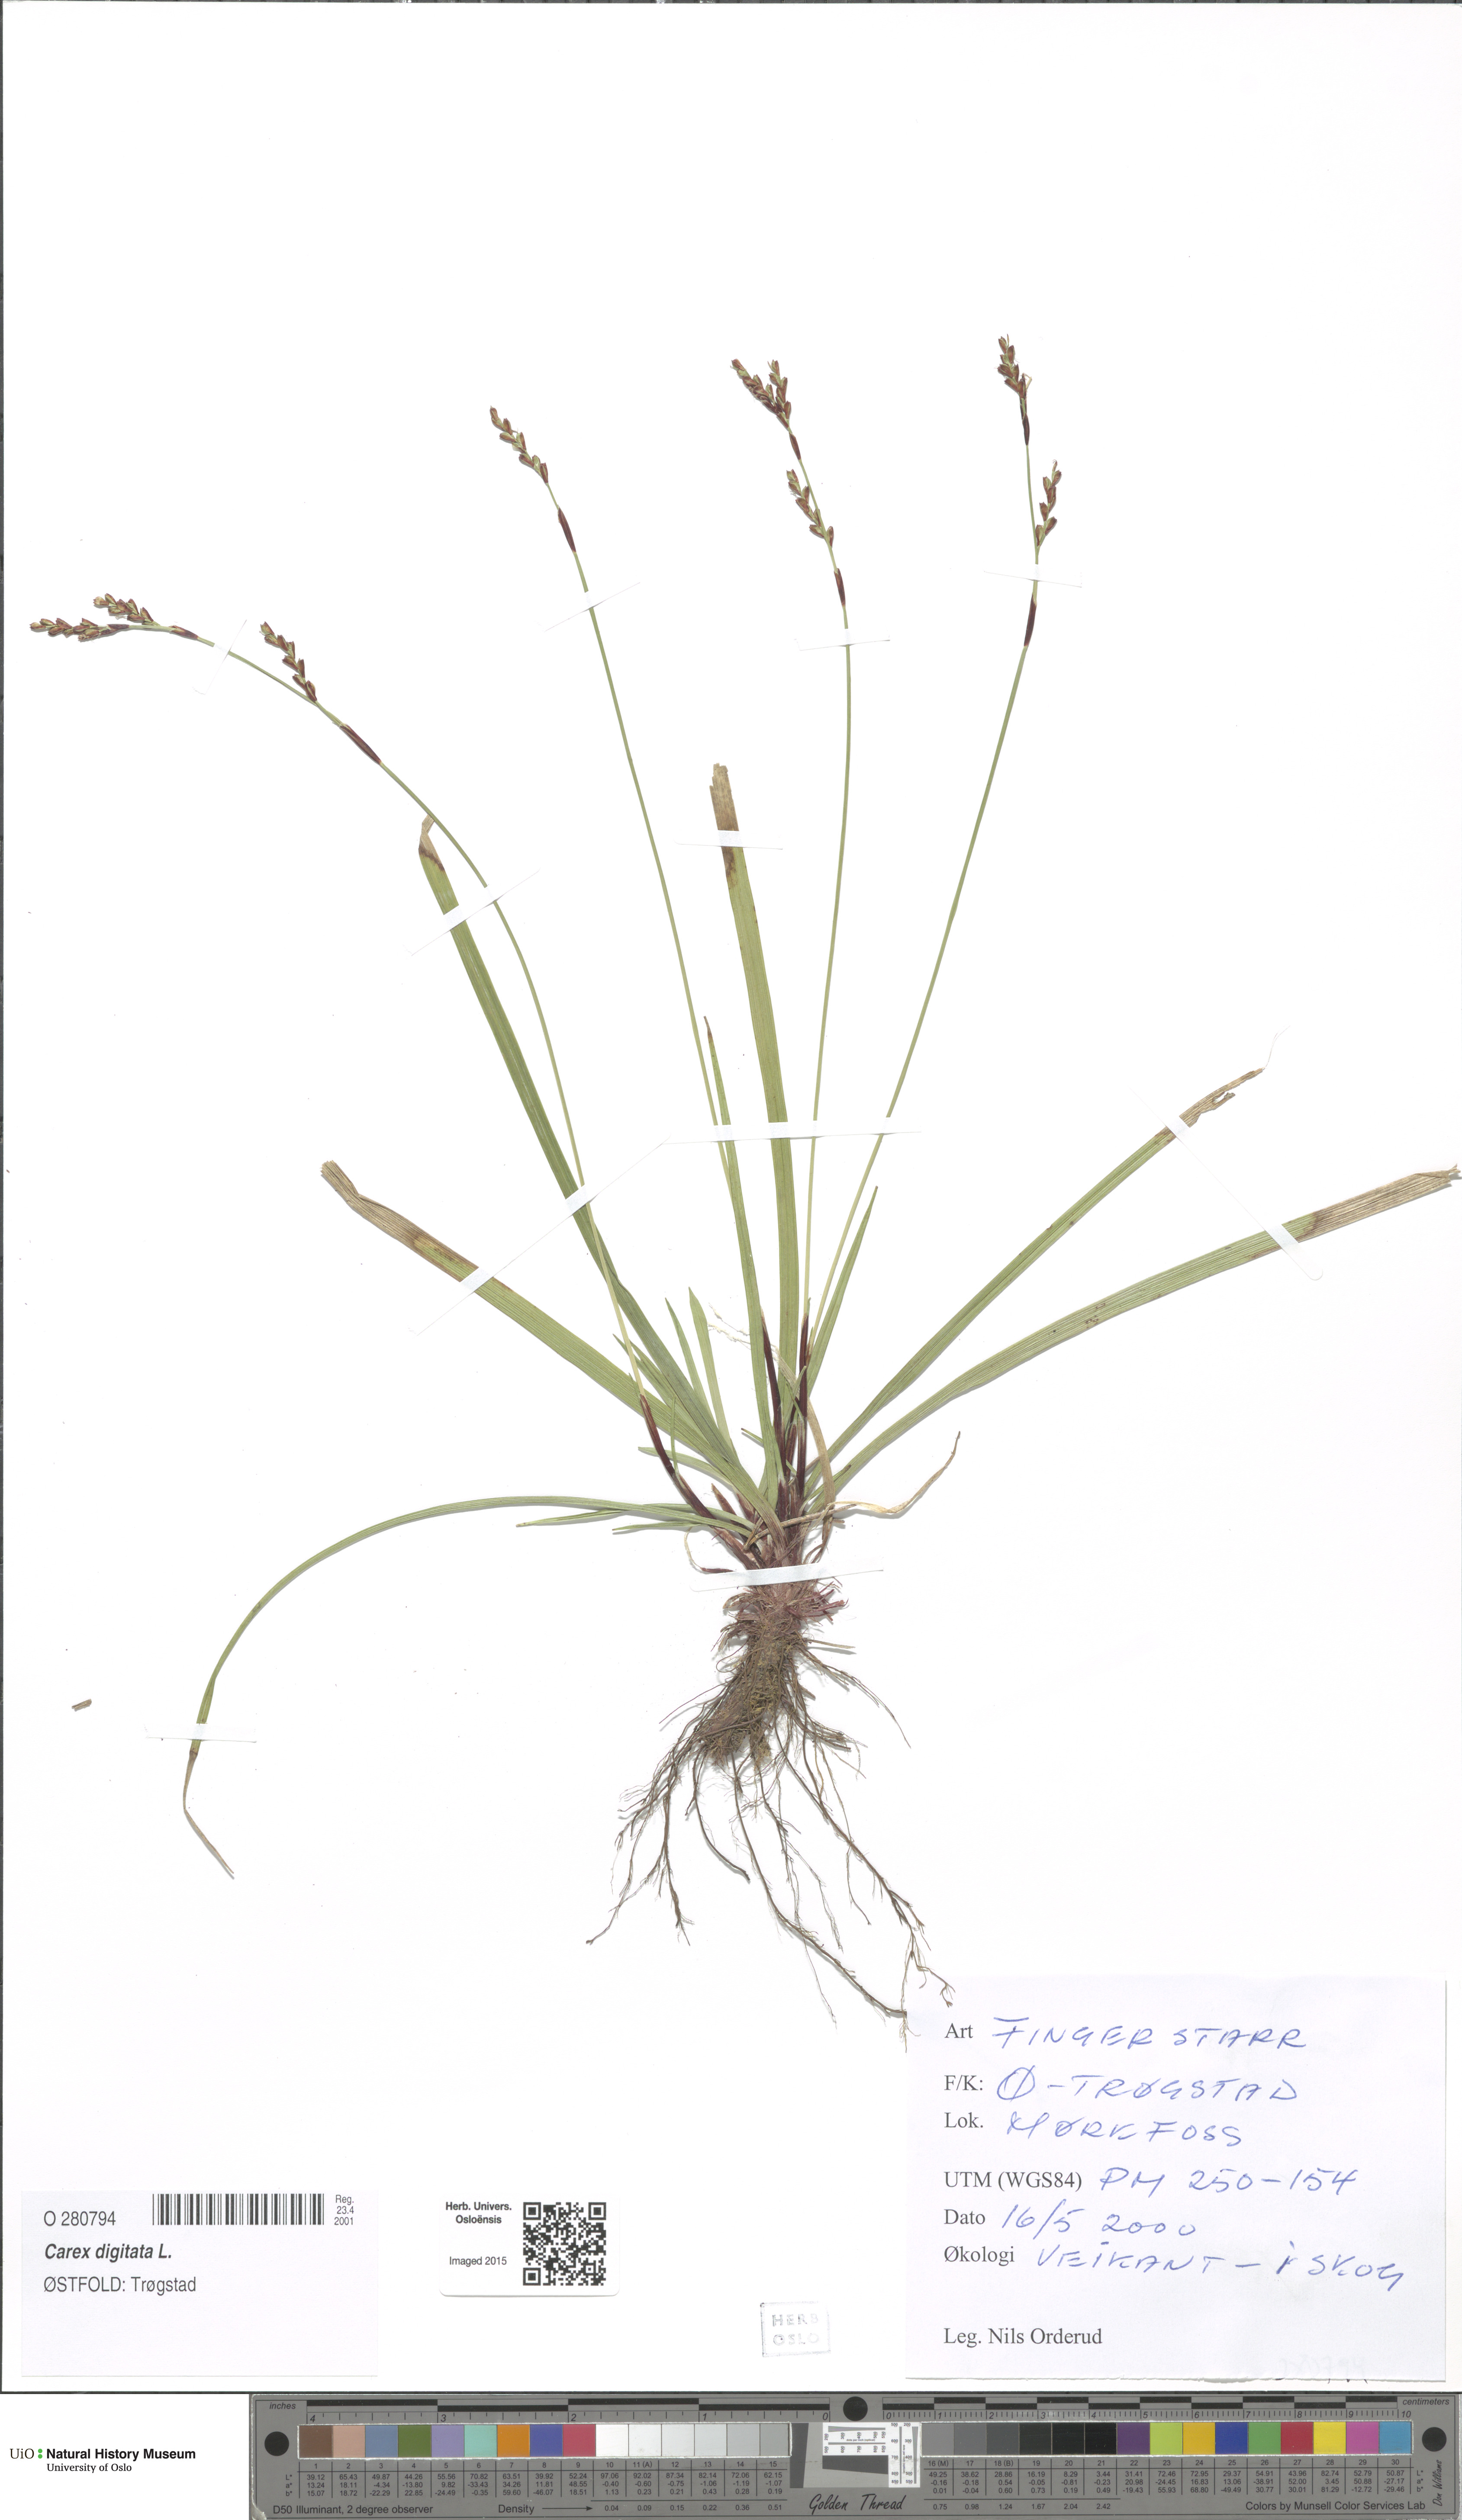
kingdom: Plantae
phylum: Tracheophyta
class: Liliopsida
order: Poales
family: Cyperaceae
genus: Carex
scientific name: Carex digitata
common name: Fingered sedge
